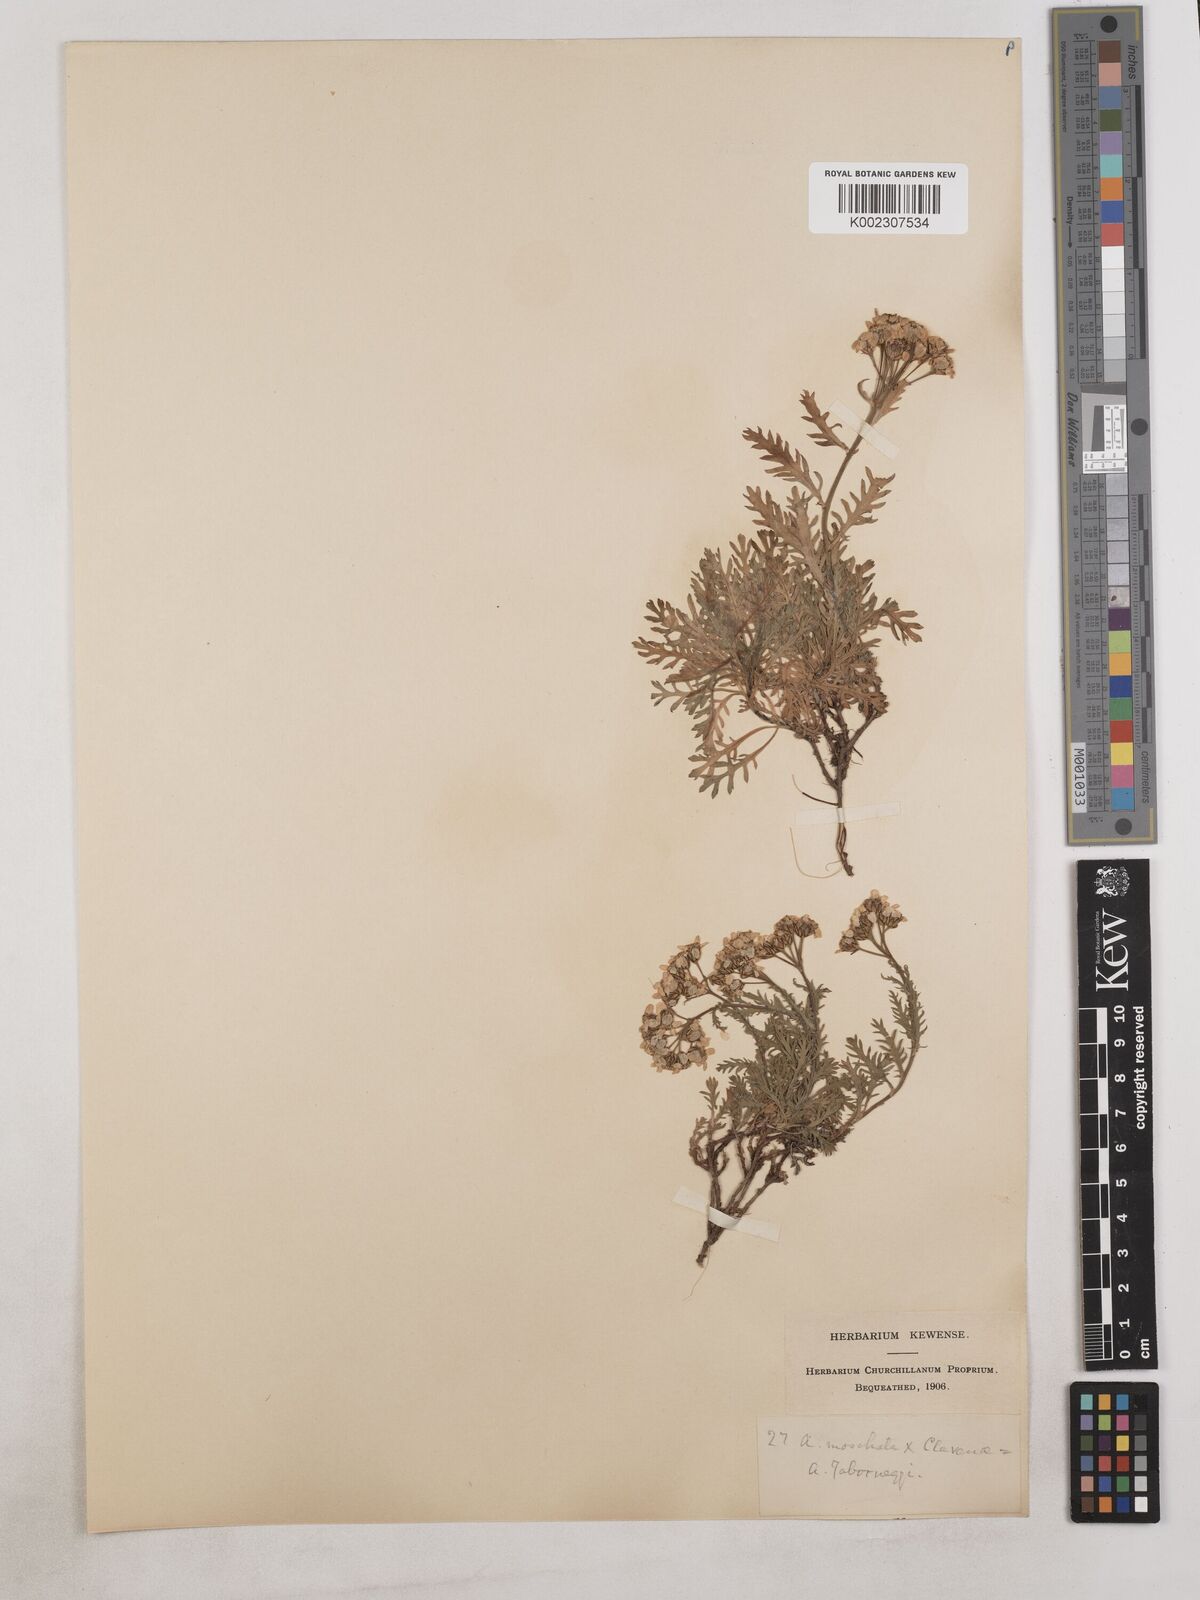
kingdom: Plantae
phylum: Tracheophyta
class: Magnoliopsida
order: Asterales
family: Asteraceae
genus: Achillea
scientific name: Achillea erba-rotta
